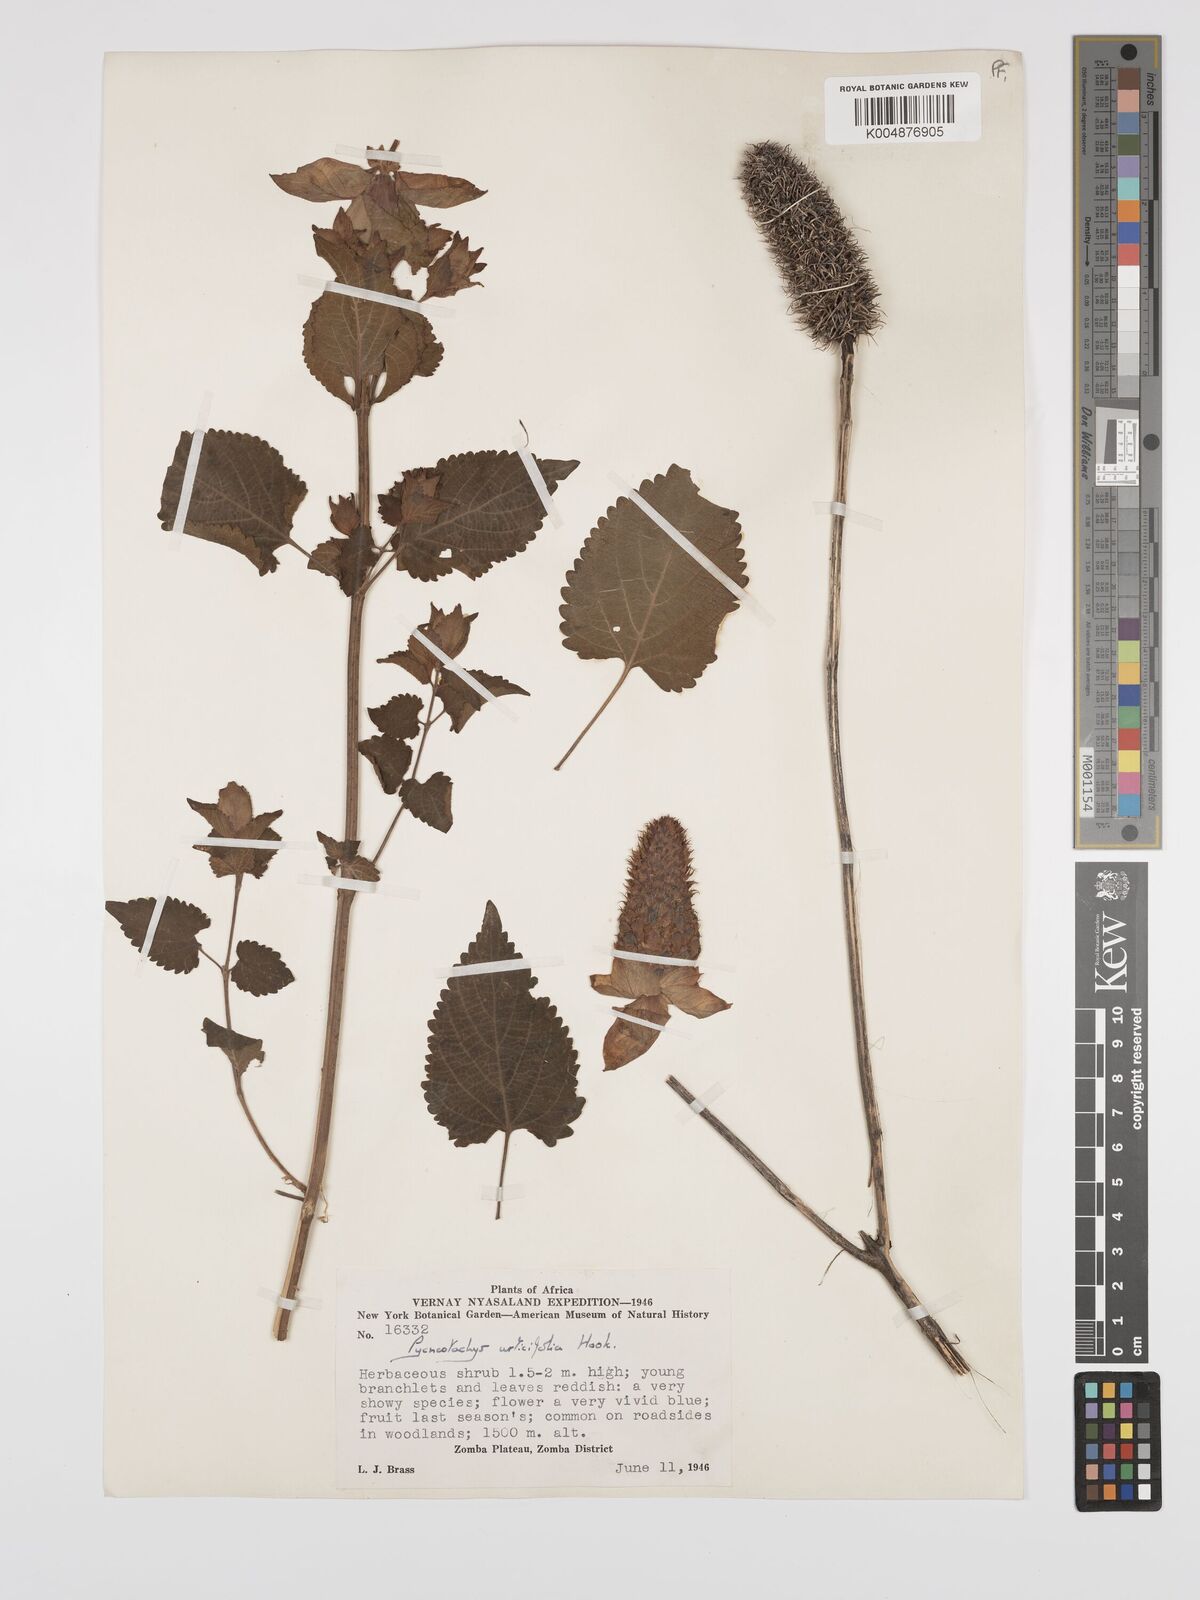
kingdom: Plantae
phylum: Tracheophyta
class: Magnoliopsida
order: Lamiales
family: Lamiaceae
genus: Coleus
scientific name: Coleus livingstonei
